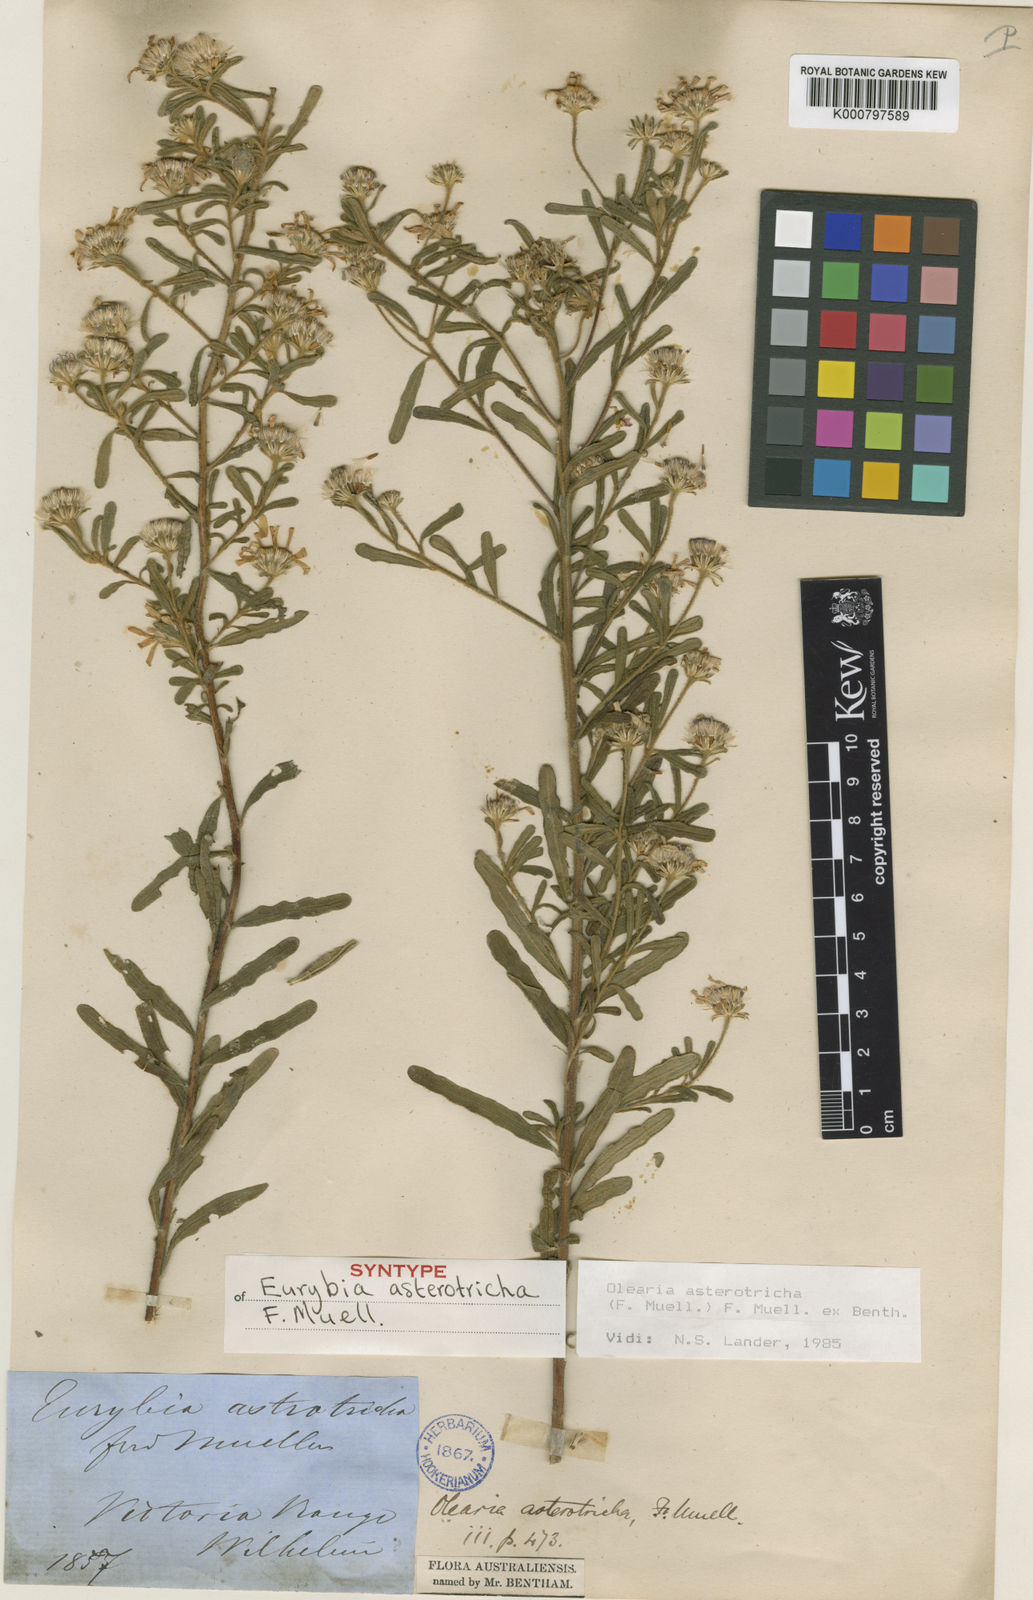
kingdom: Plantae
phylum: Tracheophyta
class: Magnoliopsida
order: Asterales
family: Asteraceae
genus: Olearia
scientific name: Olearia
